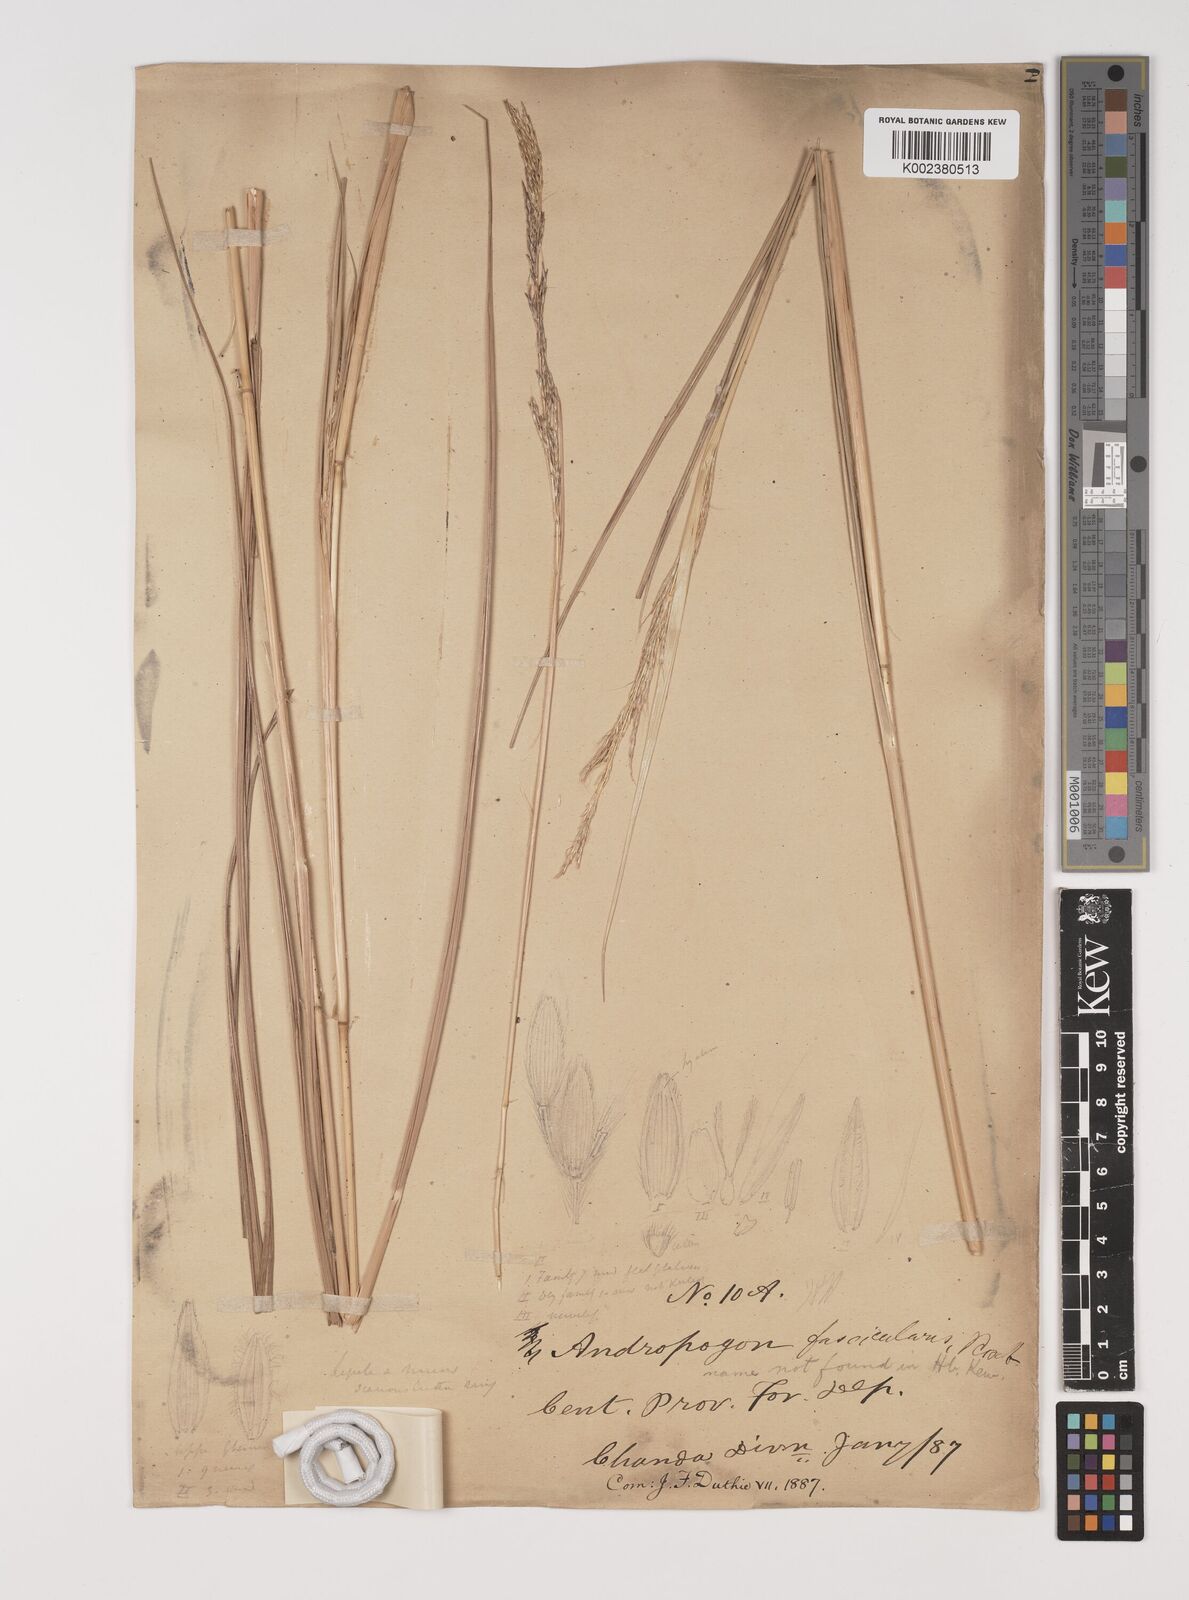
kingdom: Plantae
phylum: Tracheophyta
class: Liliopsida
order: Poales
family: Poaceae
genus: Bothriochloa
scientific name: Bothriochloa bladhii
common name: Caucasian bluestem
